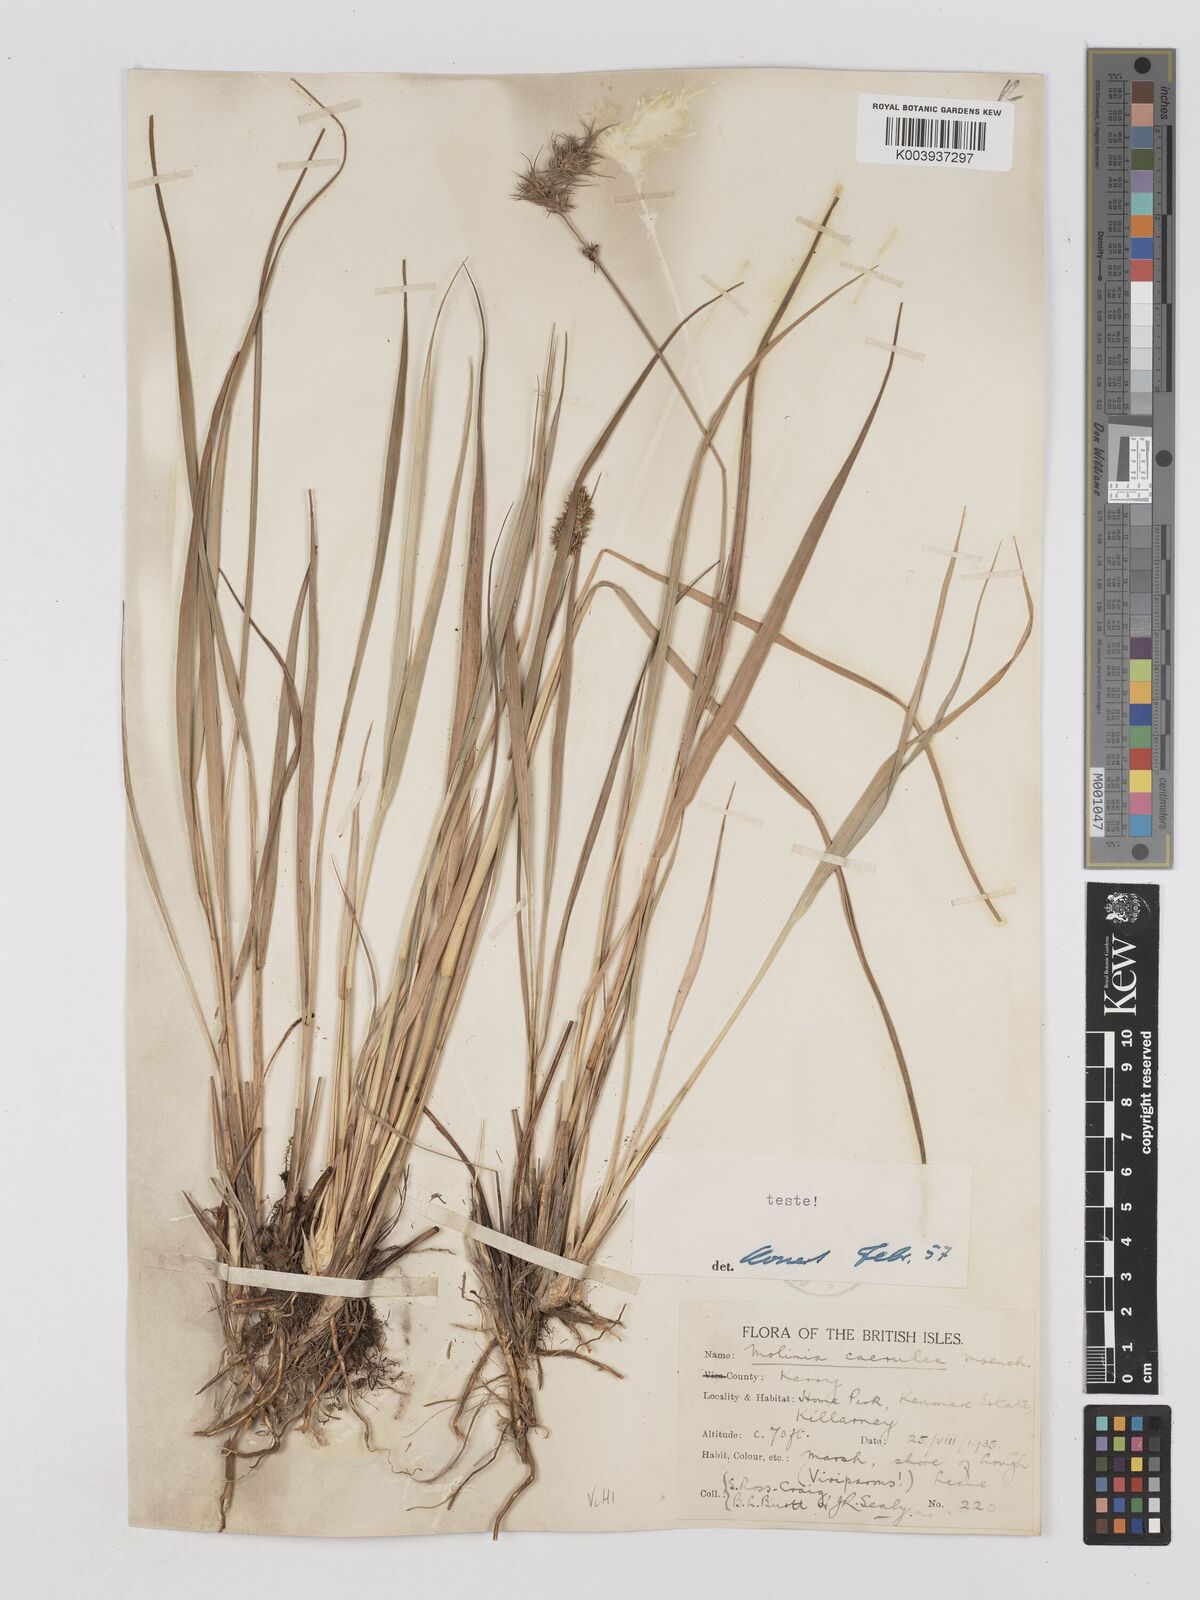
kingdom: Plantae
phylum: Tracheophyta
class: Liliopsida
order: Poales
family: Poaceae
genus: Molinia
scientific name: Molinia caerulea
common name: Purple moor-grass
